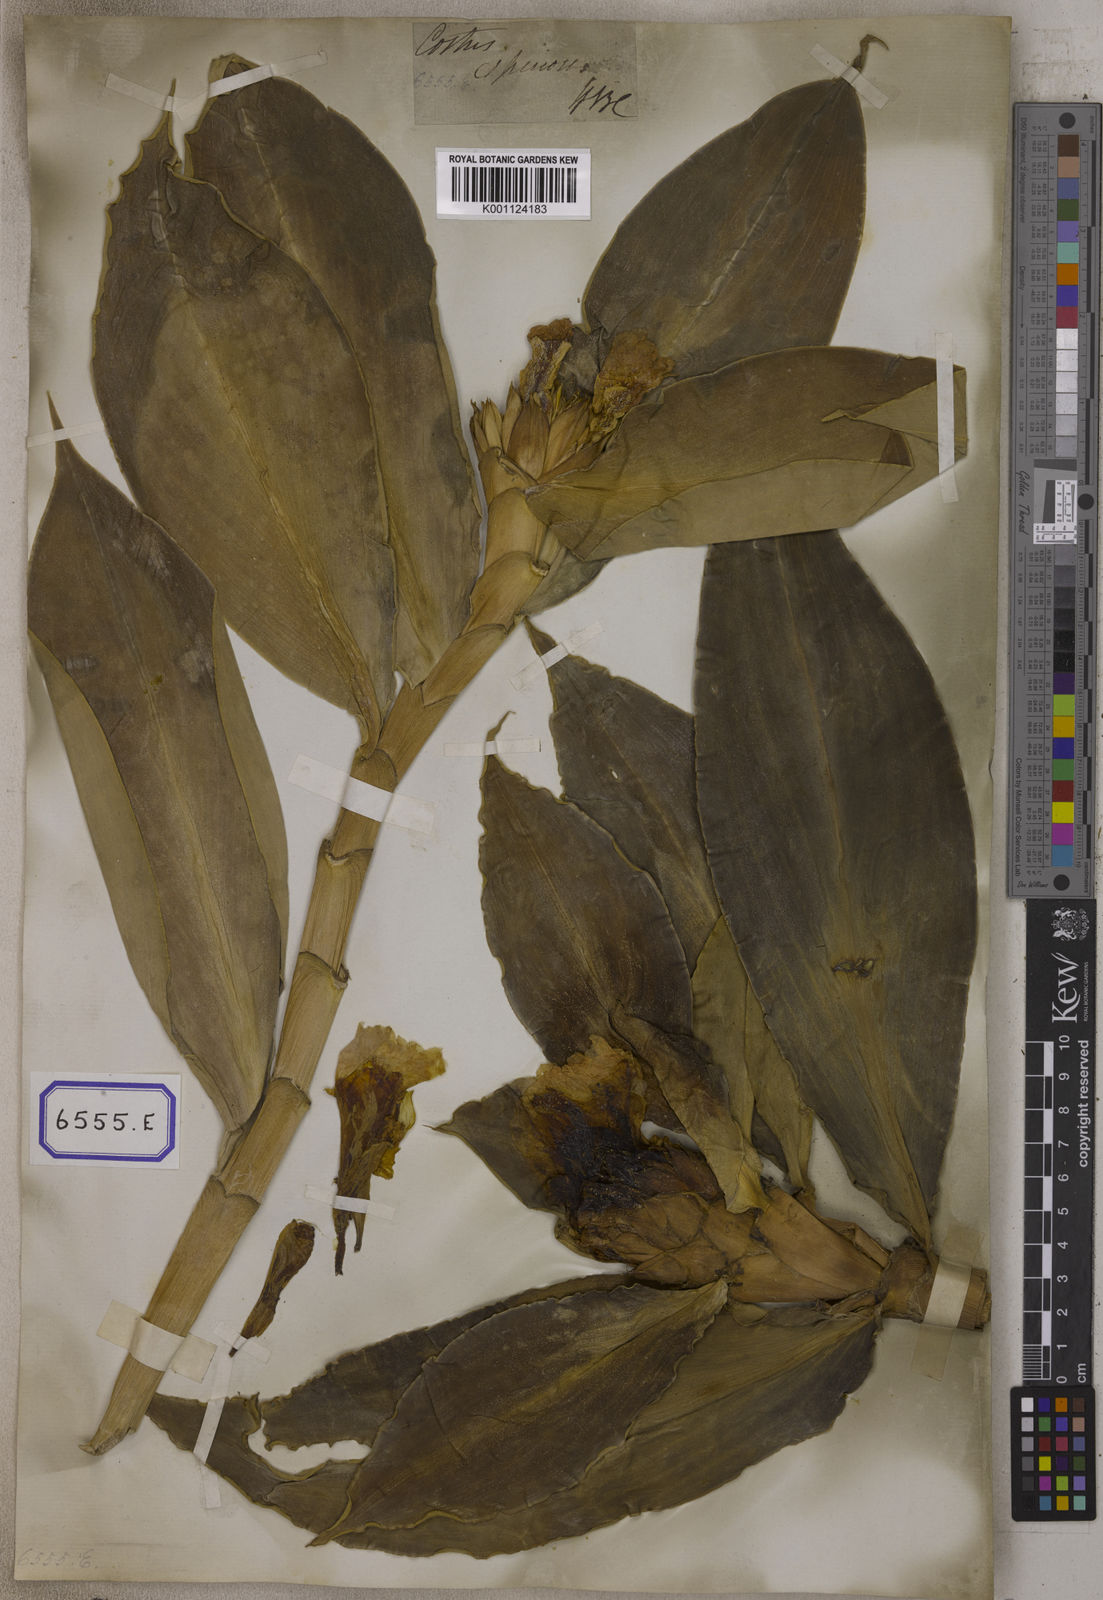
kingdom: Plantae
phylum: Tracheophyta
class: Liliopsida
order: Zingiberales
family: Costaceae
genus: Hellenia
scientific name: Hellenia speciosa
